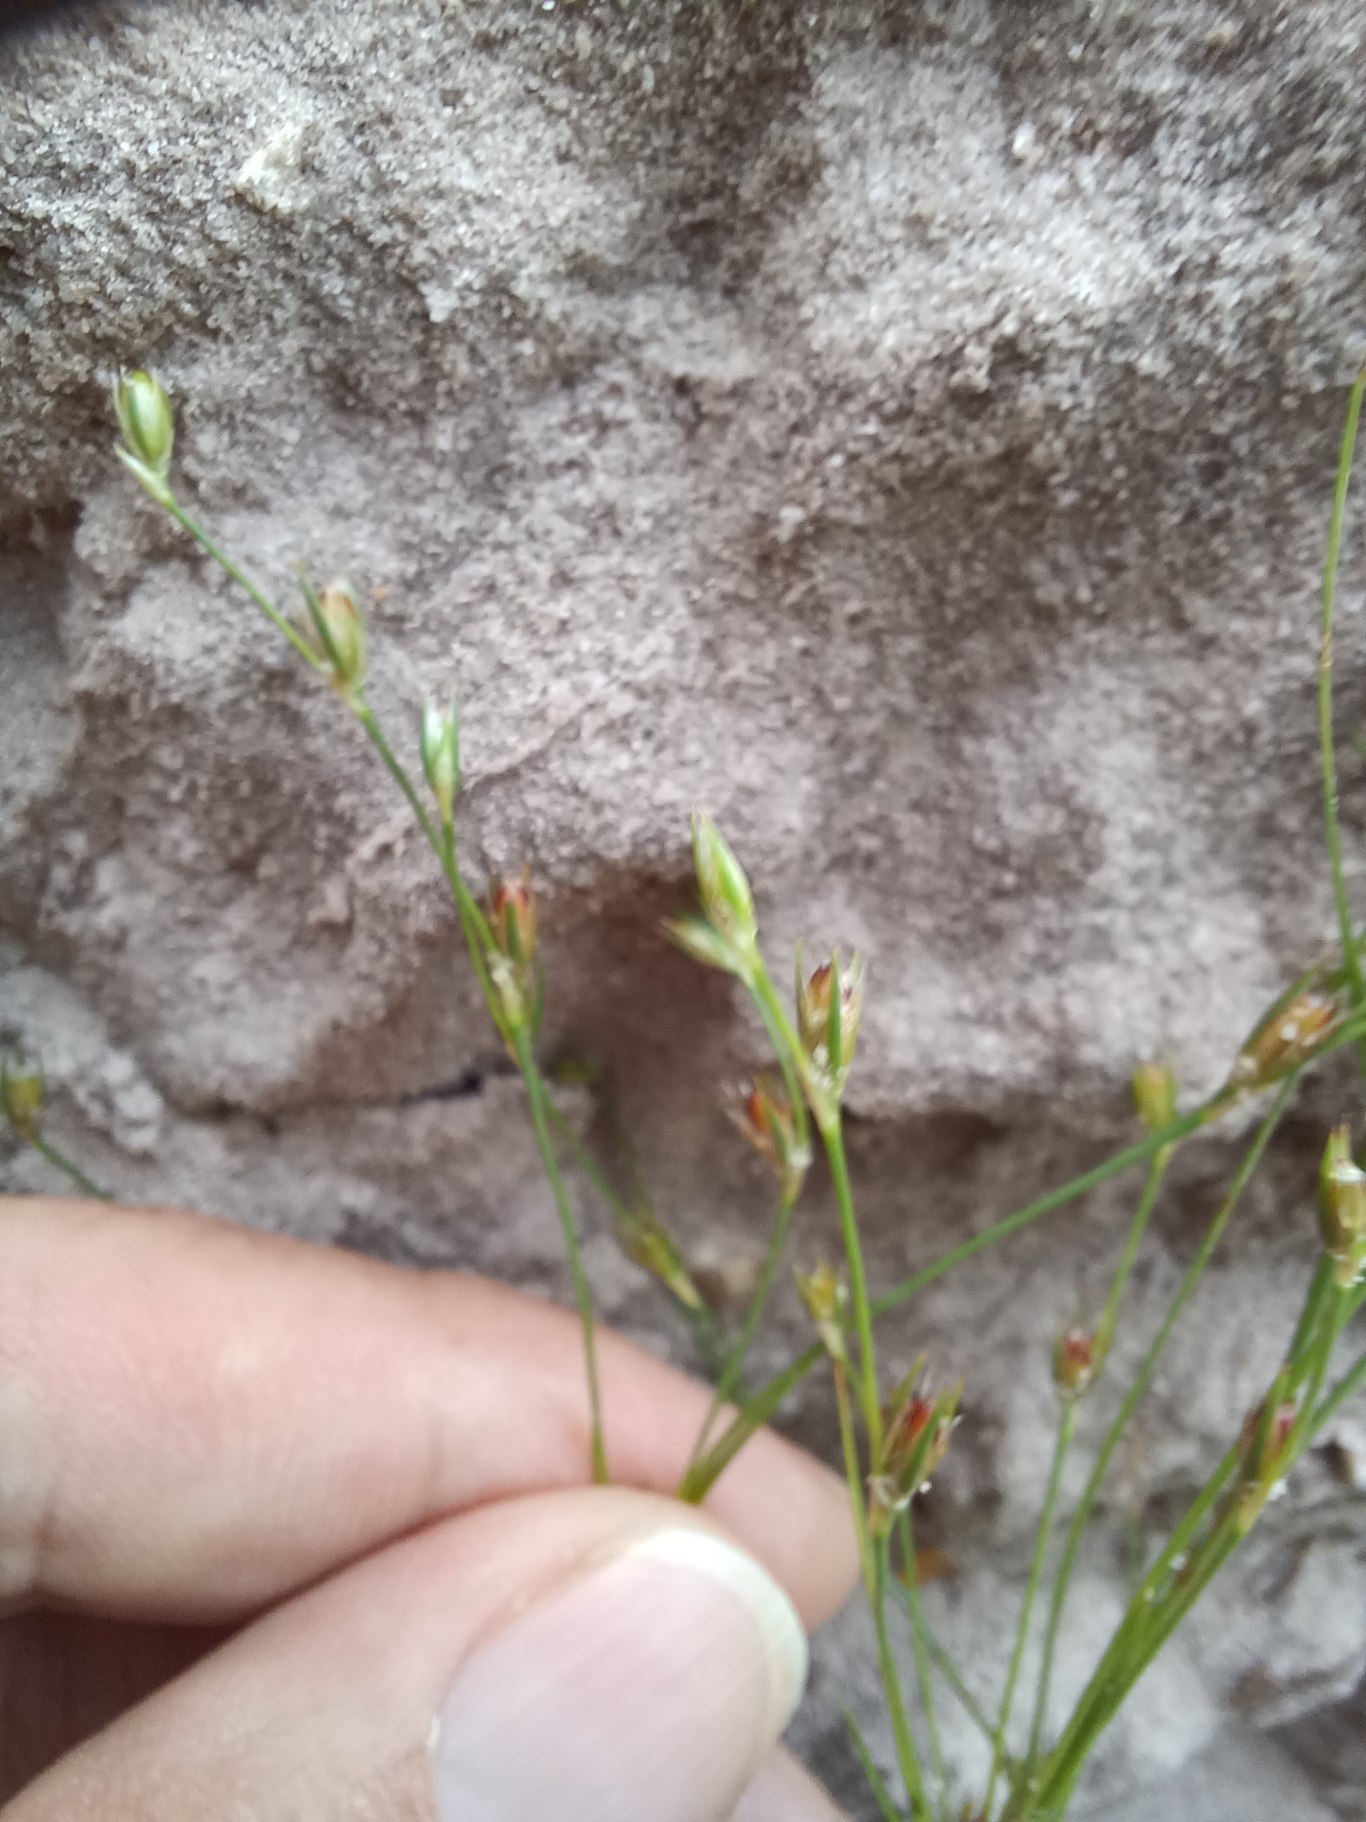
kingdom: Plantae
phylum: Tracheophyta
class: Liliopsida
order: Poales
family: Juncaceae
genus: Juncus
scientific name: Juncus bufonius
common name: Tudse-siv
